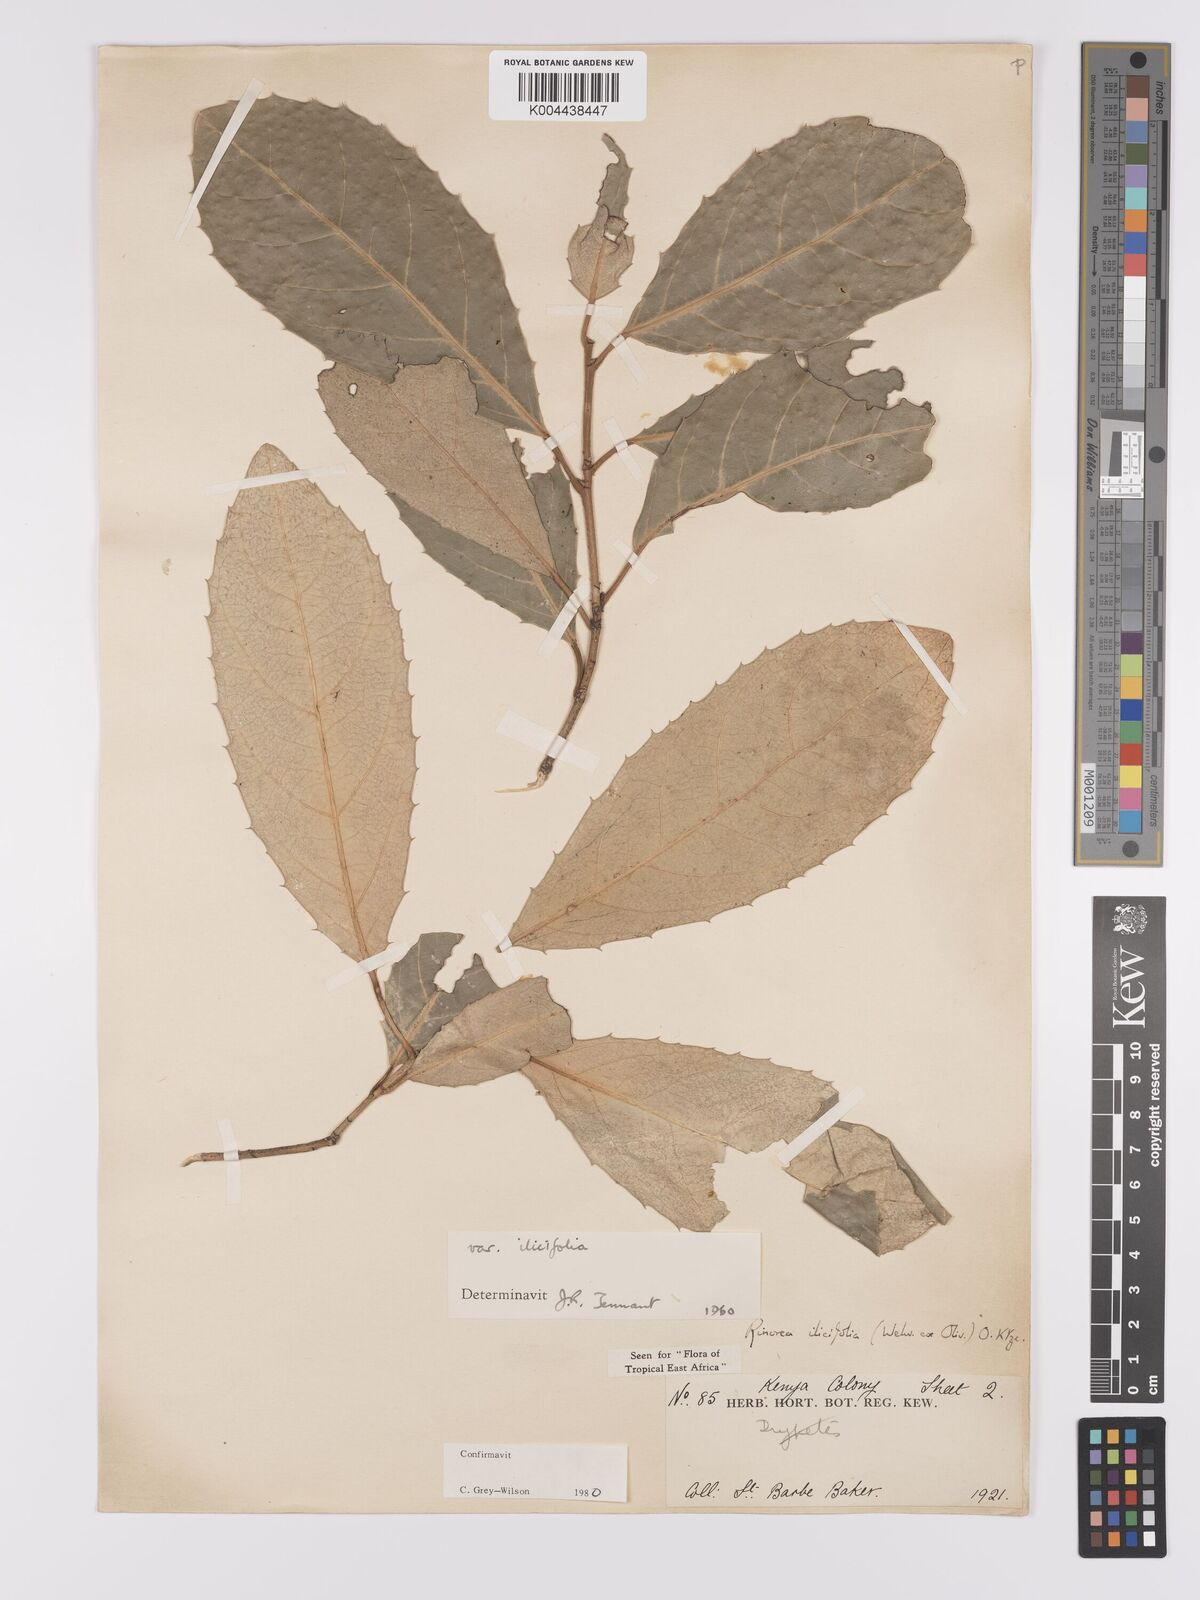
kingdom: Plantae
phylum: Tracheophyta
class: Magnoliopsida
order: Malpighiales
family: Violaceae
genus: Rinorea
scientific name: Rinorea ilicifolia
